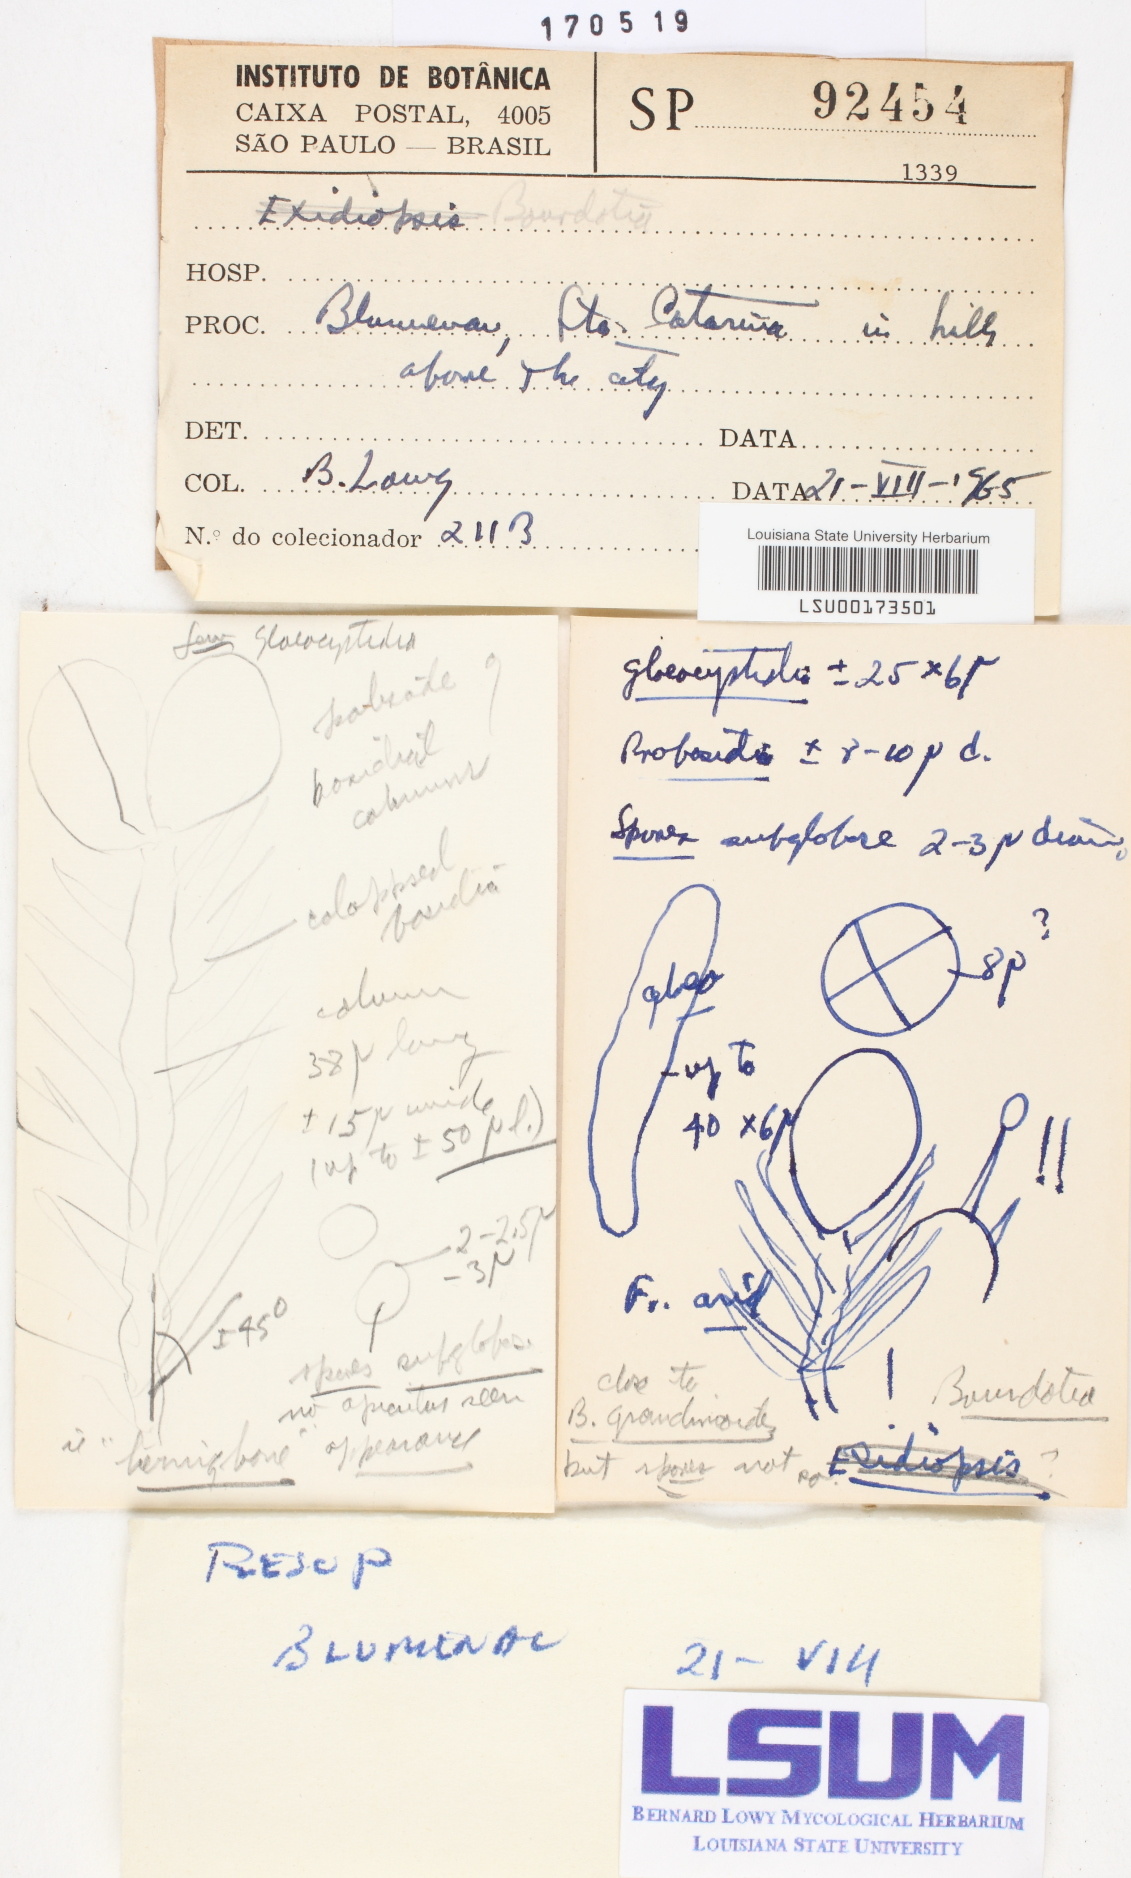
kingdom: Fungi
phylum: Basidiomycota
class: Tremellomycetes
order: Tremellales
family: Exidiaceae
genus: Bourdotia
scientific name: Bourdotia
